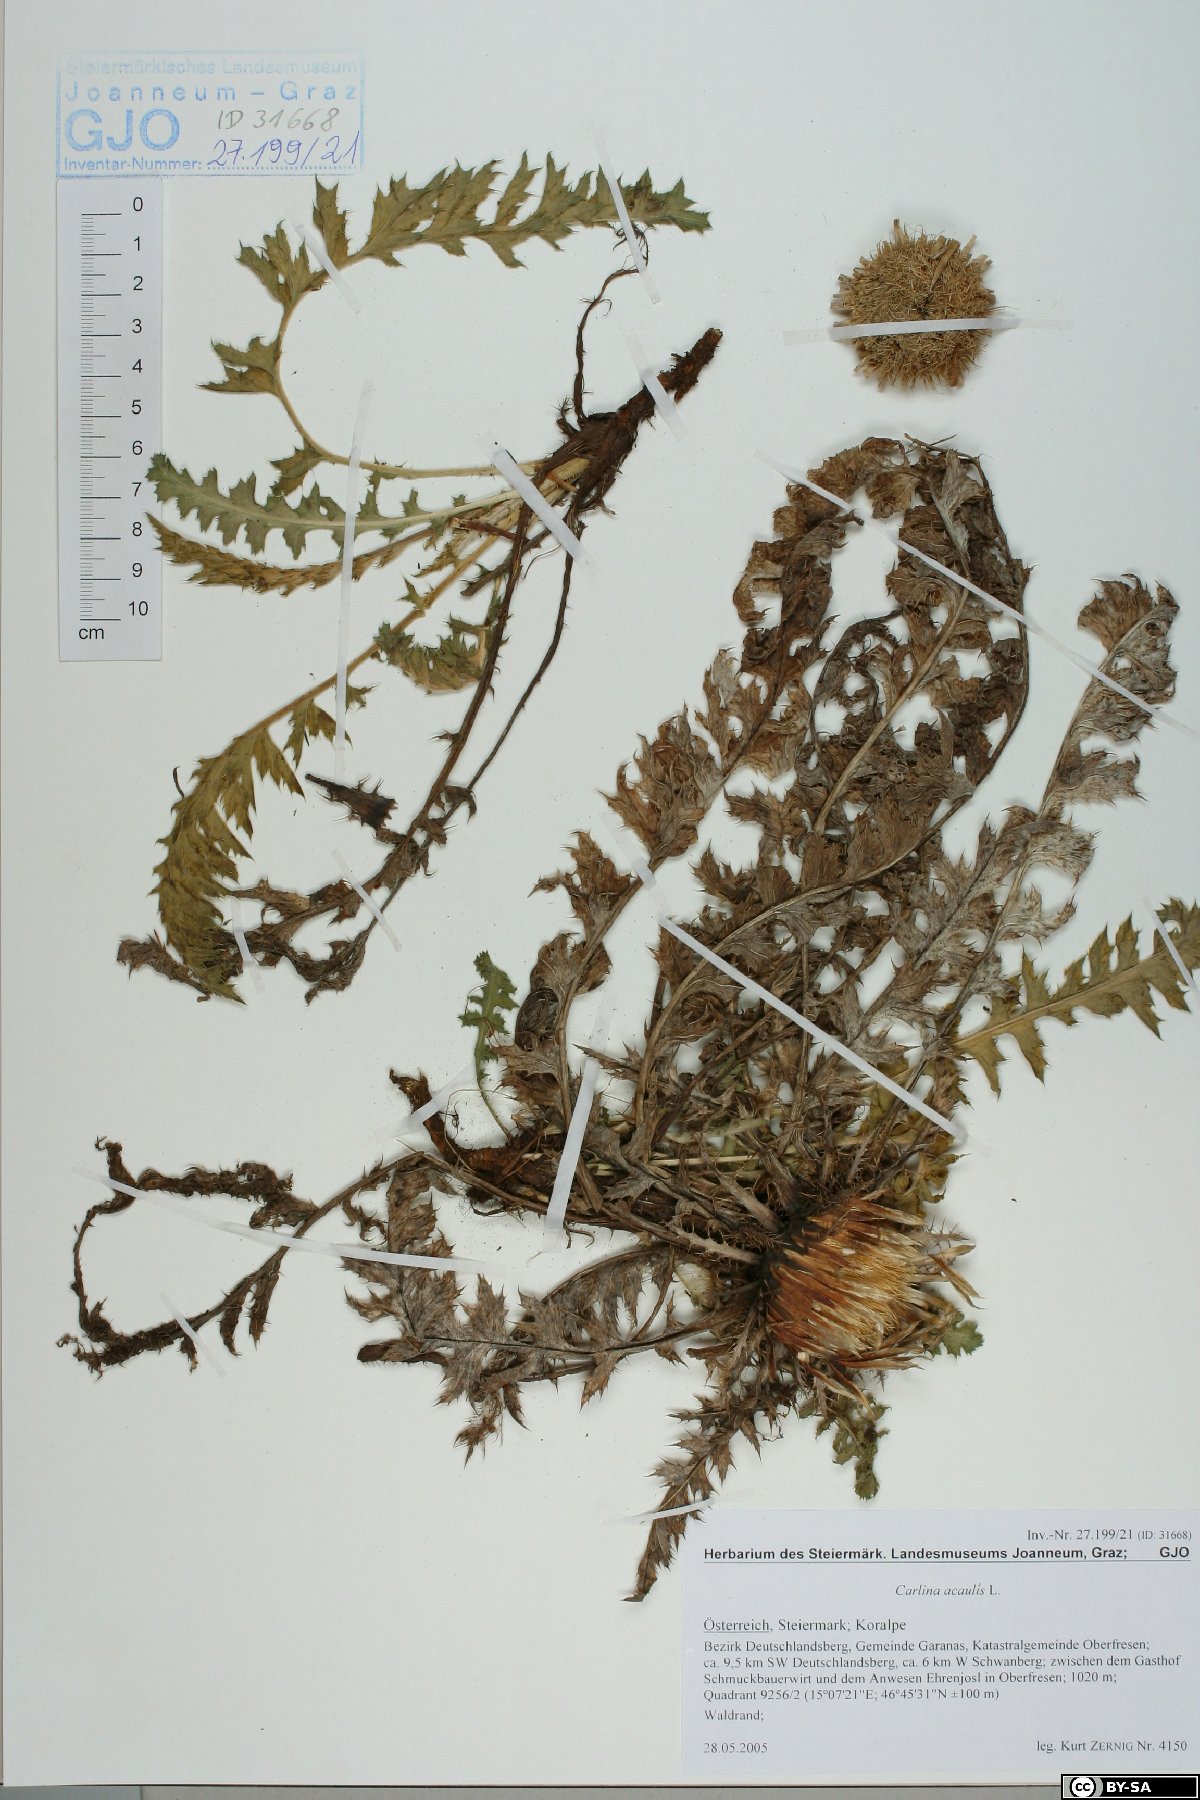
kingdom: Plantae
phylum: Tracheophyta
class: Magnoliopsida
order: Asterales
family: Asteraceae
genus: Carlina
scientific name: Carlina acaulis
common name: Stemless carline thistle
